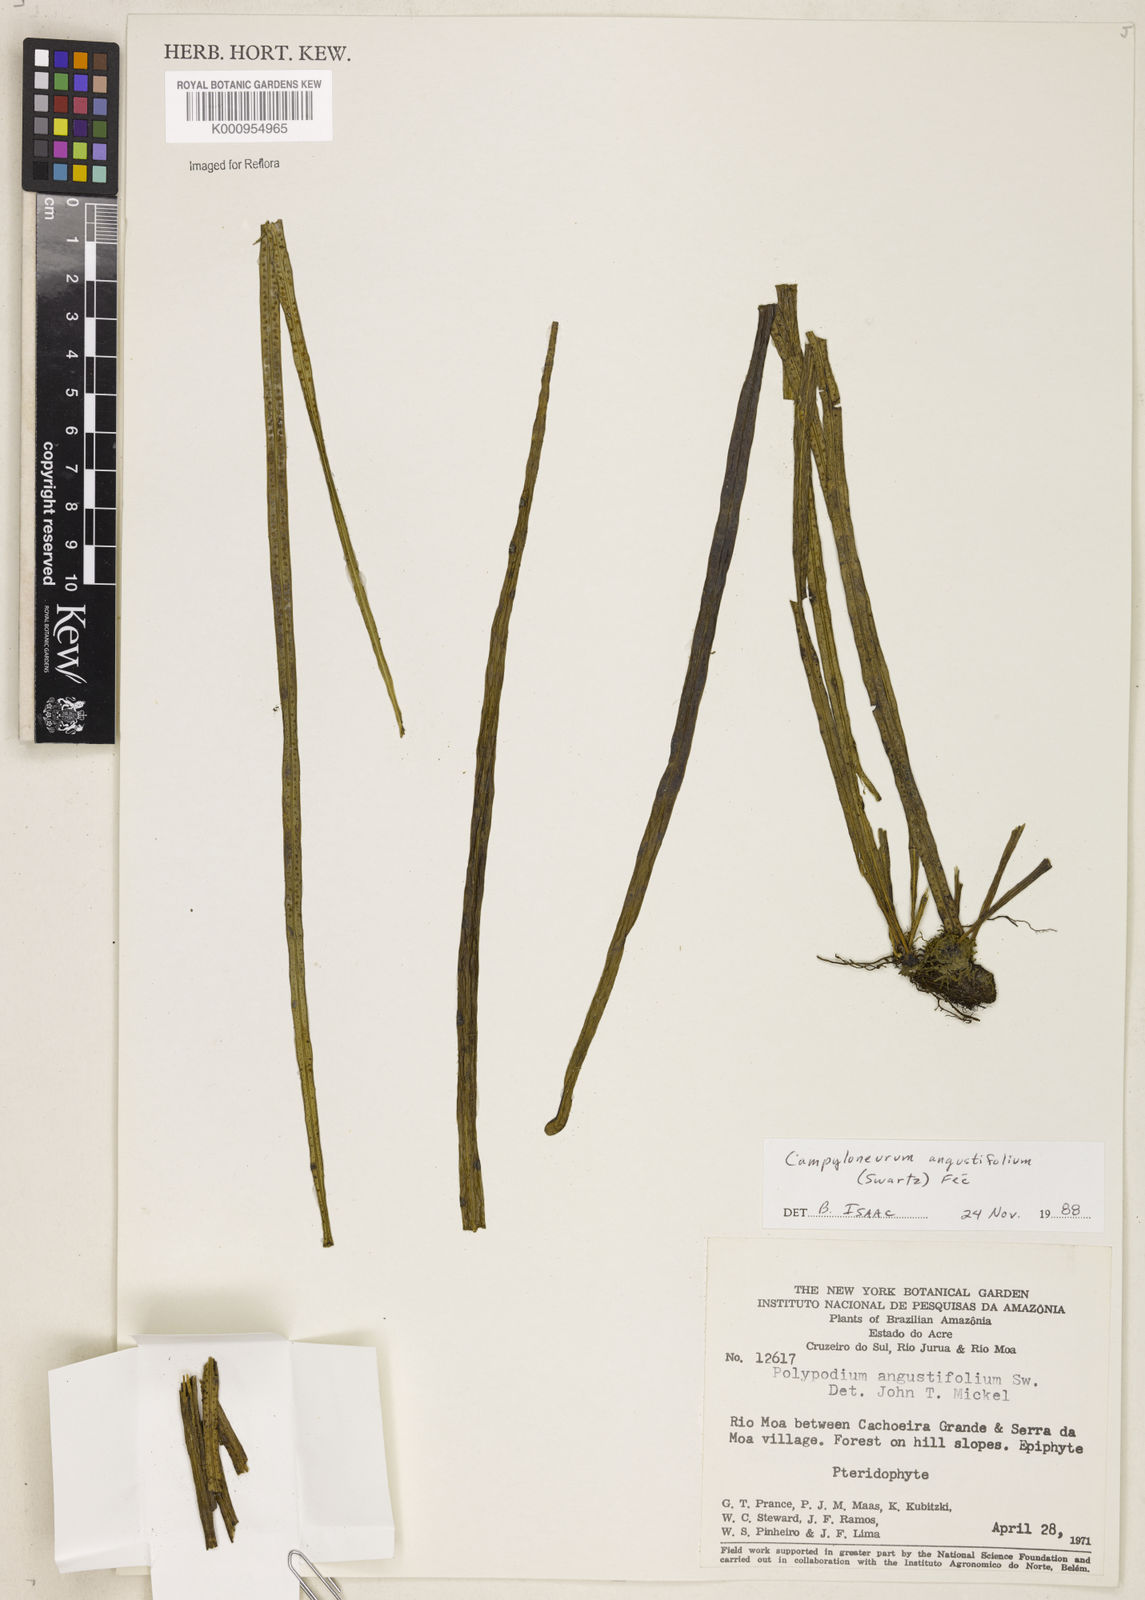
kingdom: Plantae
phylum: Tracheophyta
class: Polypodiopsida
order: Polypodiales
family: Polypodiaceae
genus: Campyloneurum
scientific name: Campyloneurum
